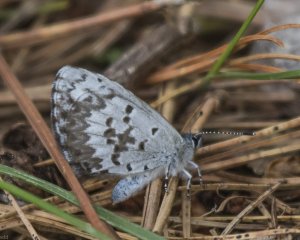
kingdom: Animalia
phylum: Arthropoda
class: Insecta
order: Lepidoptera
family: Lycaenidae
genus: Celastrina
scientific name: Celastrina lucia
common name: Northern Spring Azure
